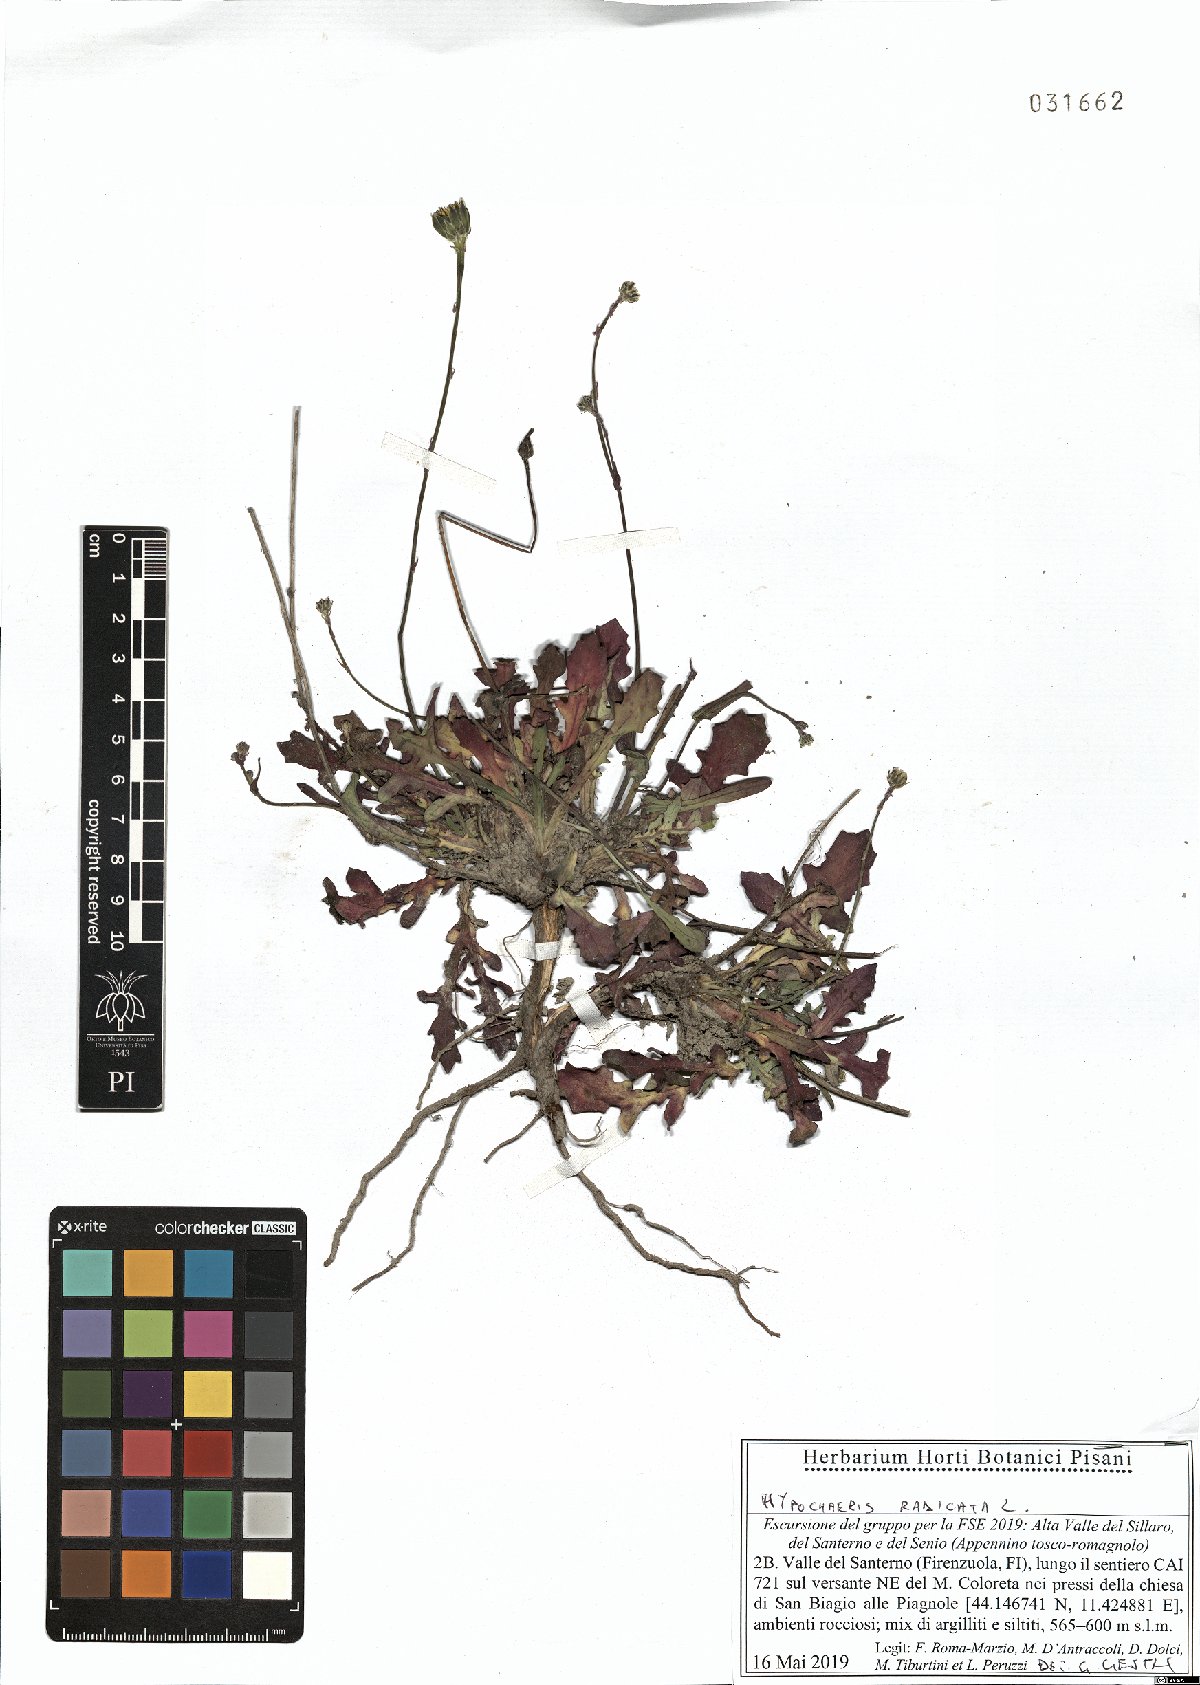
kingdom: Plantae
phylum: Tracheophyta
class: Magnoliopsida
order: Asterales
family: Asteraceae
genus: Hypochaeris
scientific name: Hypochaeris radicata
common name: Flatweed
